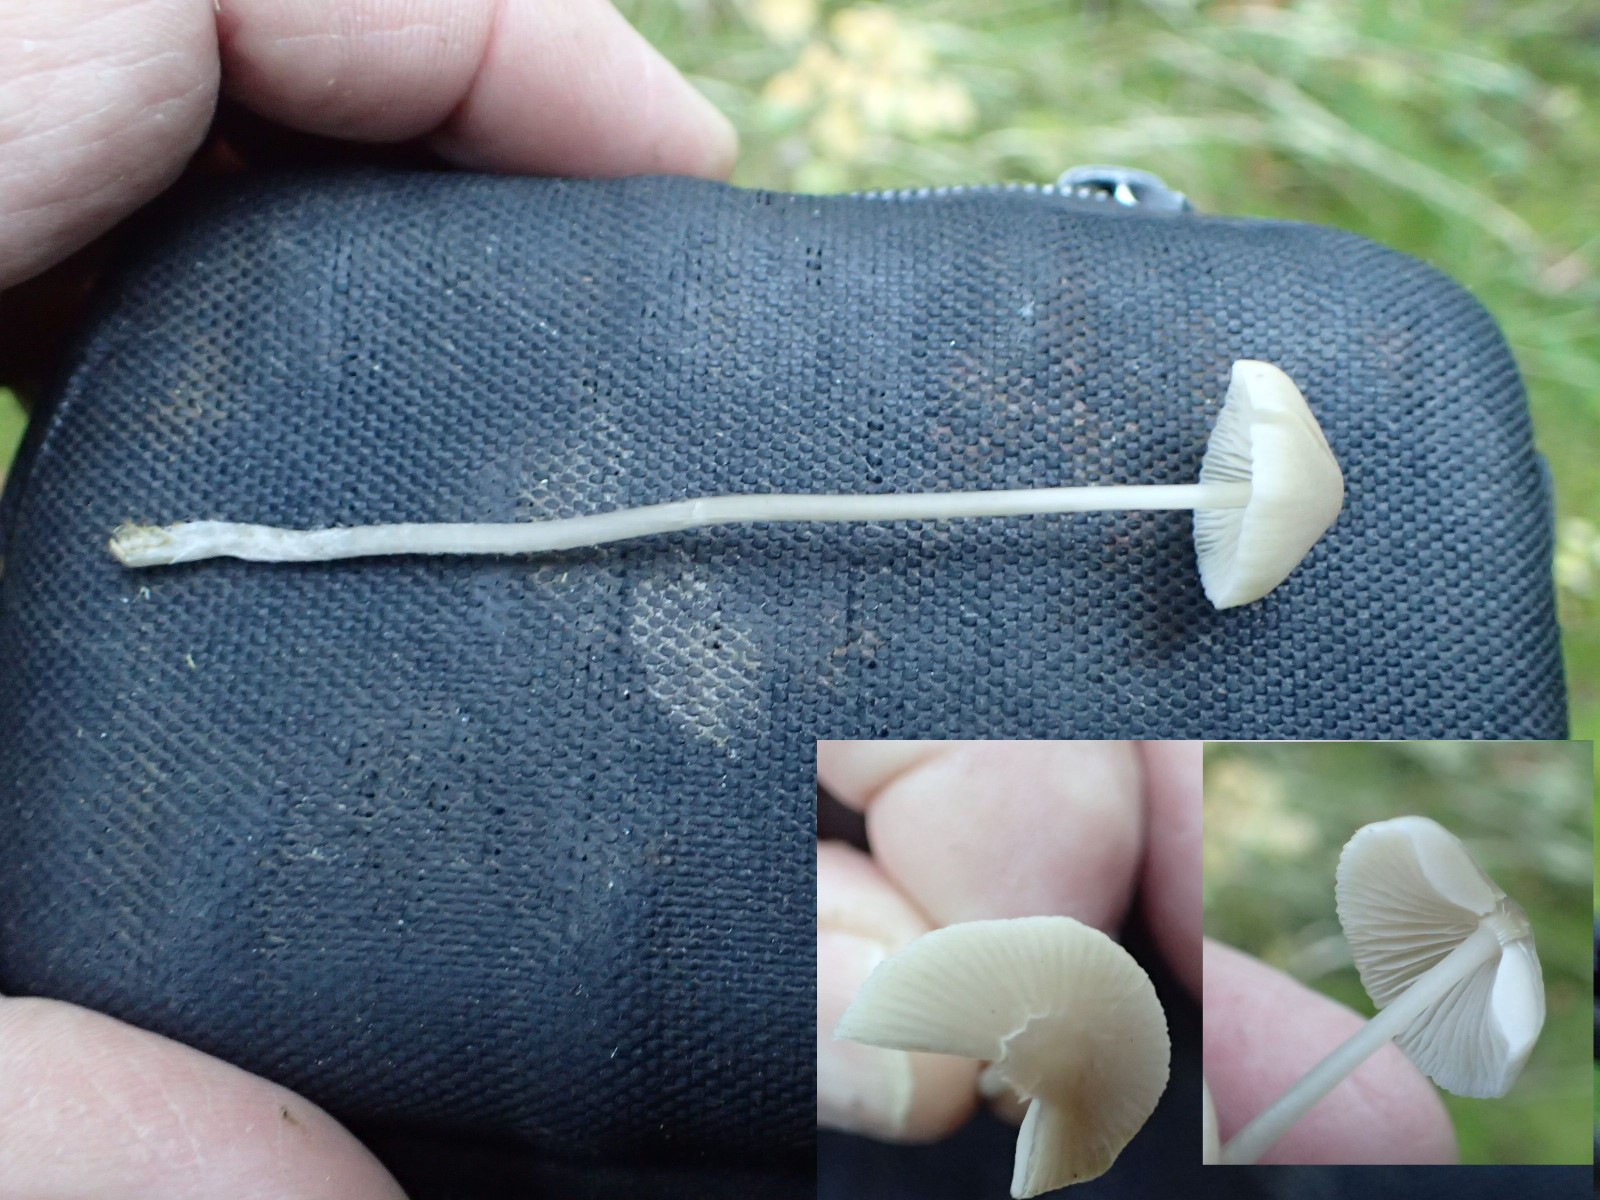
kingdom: Fungi
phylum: Basidiomycota
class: Agaricomycetes
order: Agaricales
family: Mycenaceae
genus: Mycena
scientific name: Mycena
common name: huesvamp
